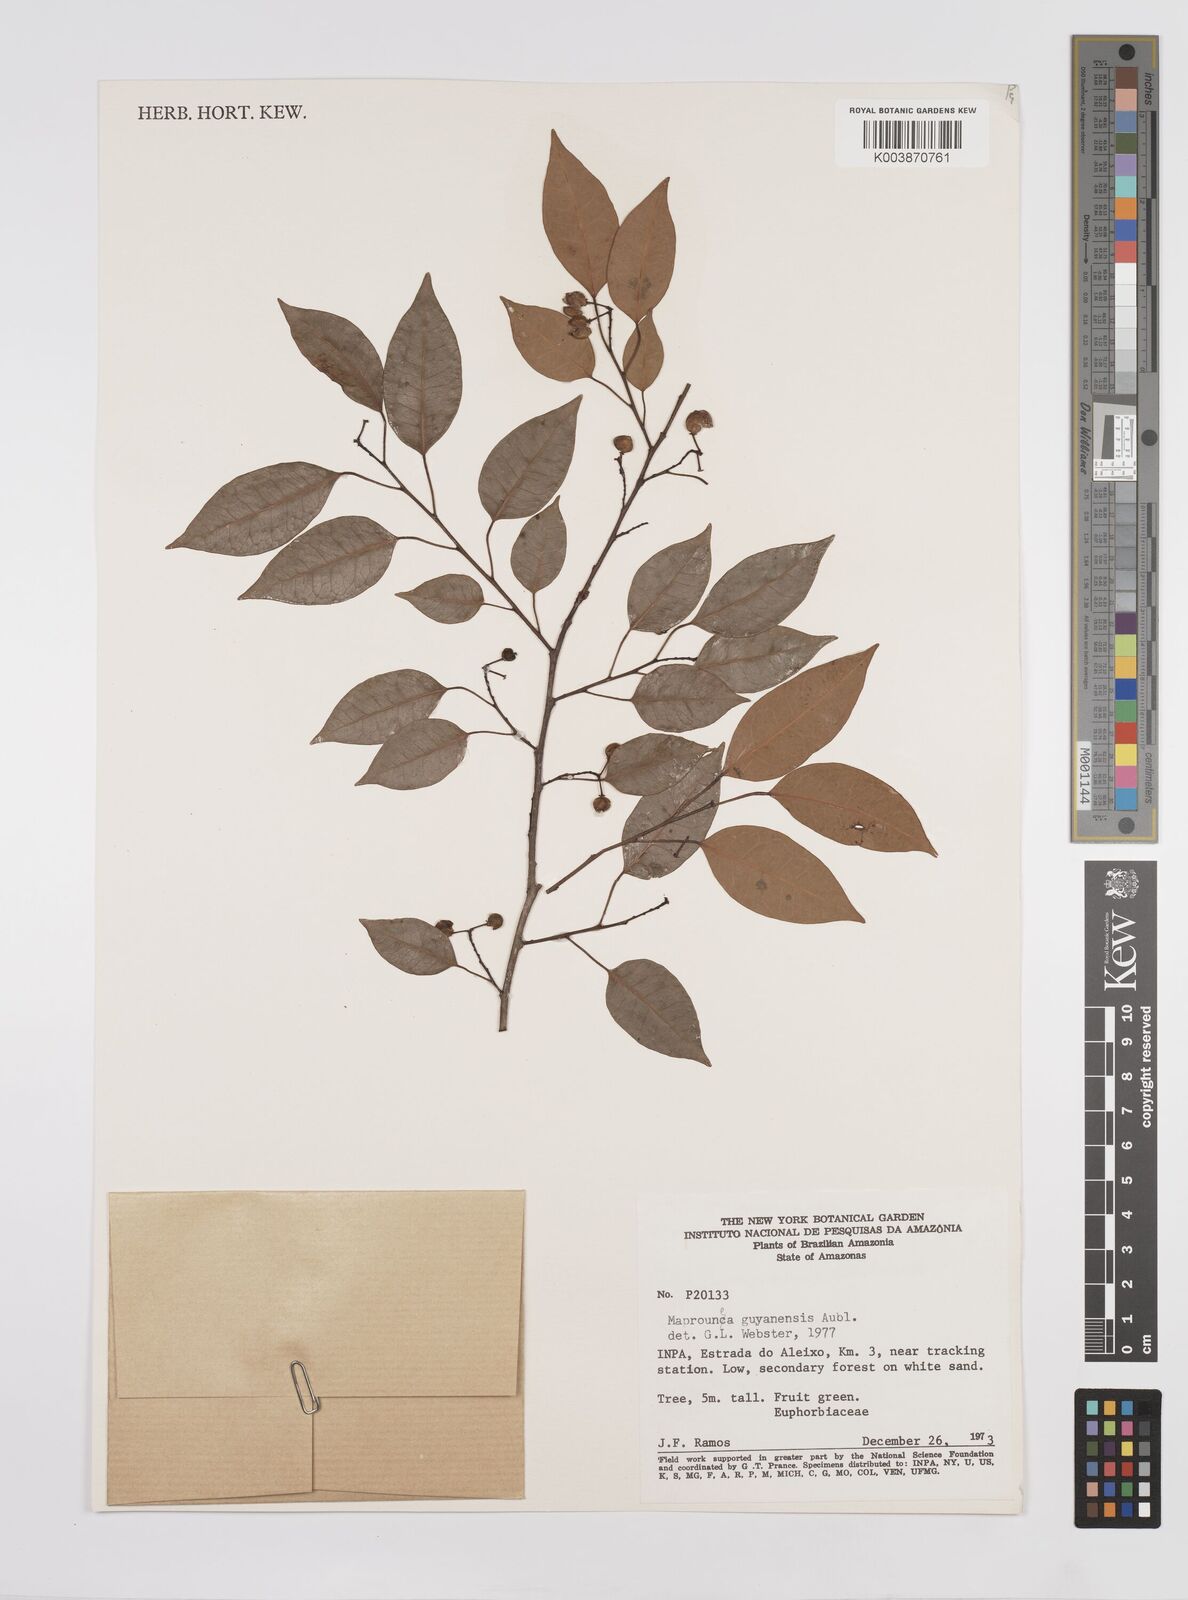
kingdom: Plantae
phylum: Tracheophyta
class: Magnoliopsida
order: Malpighiales
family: Euphorbiaceae
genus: Maprounea
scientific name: Maprounea guianensis
